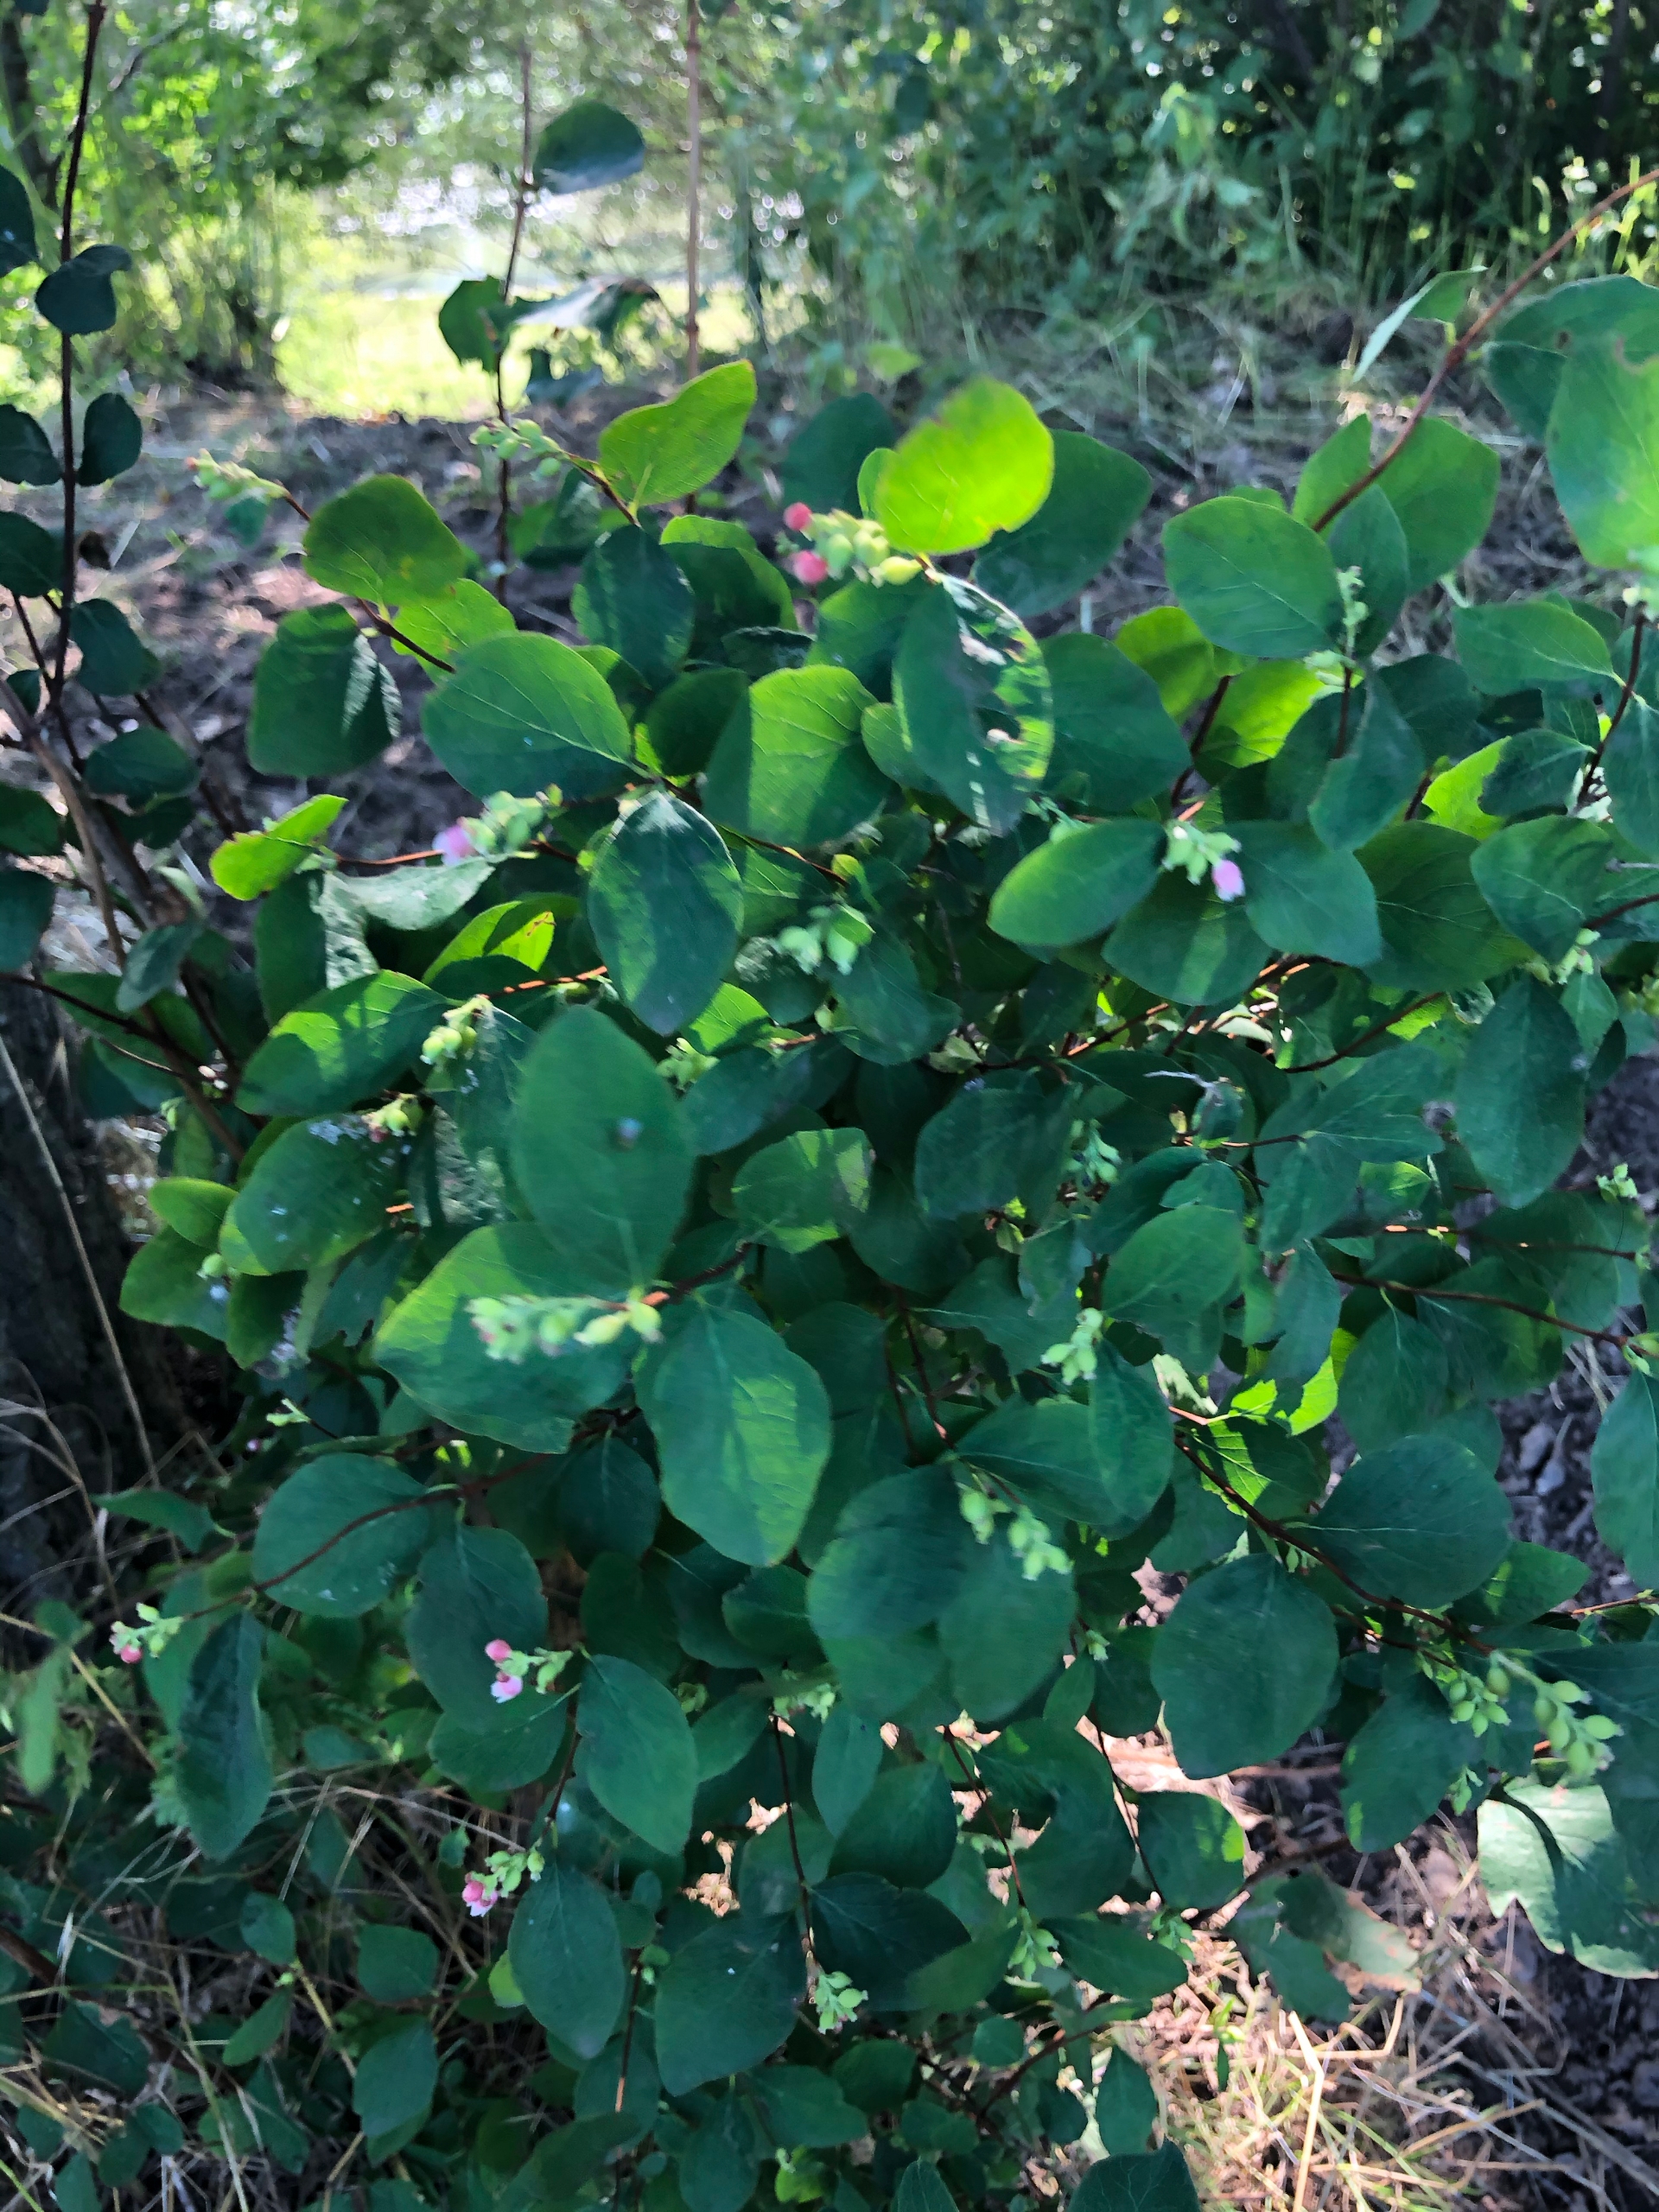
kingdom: Plantae
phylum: Tracheophyta
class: Magnoliopsida
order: Dipsacales
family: Caprifoliaceae
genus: Symphoricarpos
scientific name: Symphoricarpos albus
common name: Almindelig snebær
